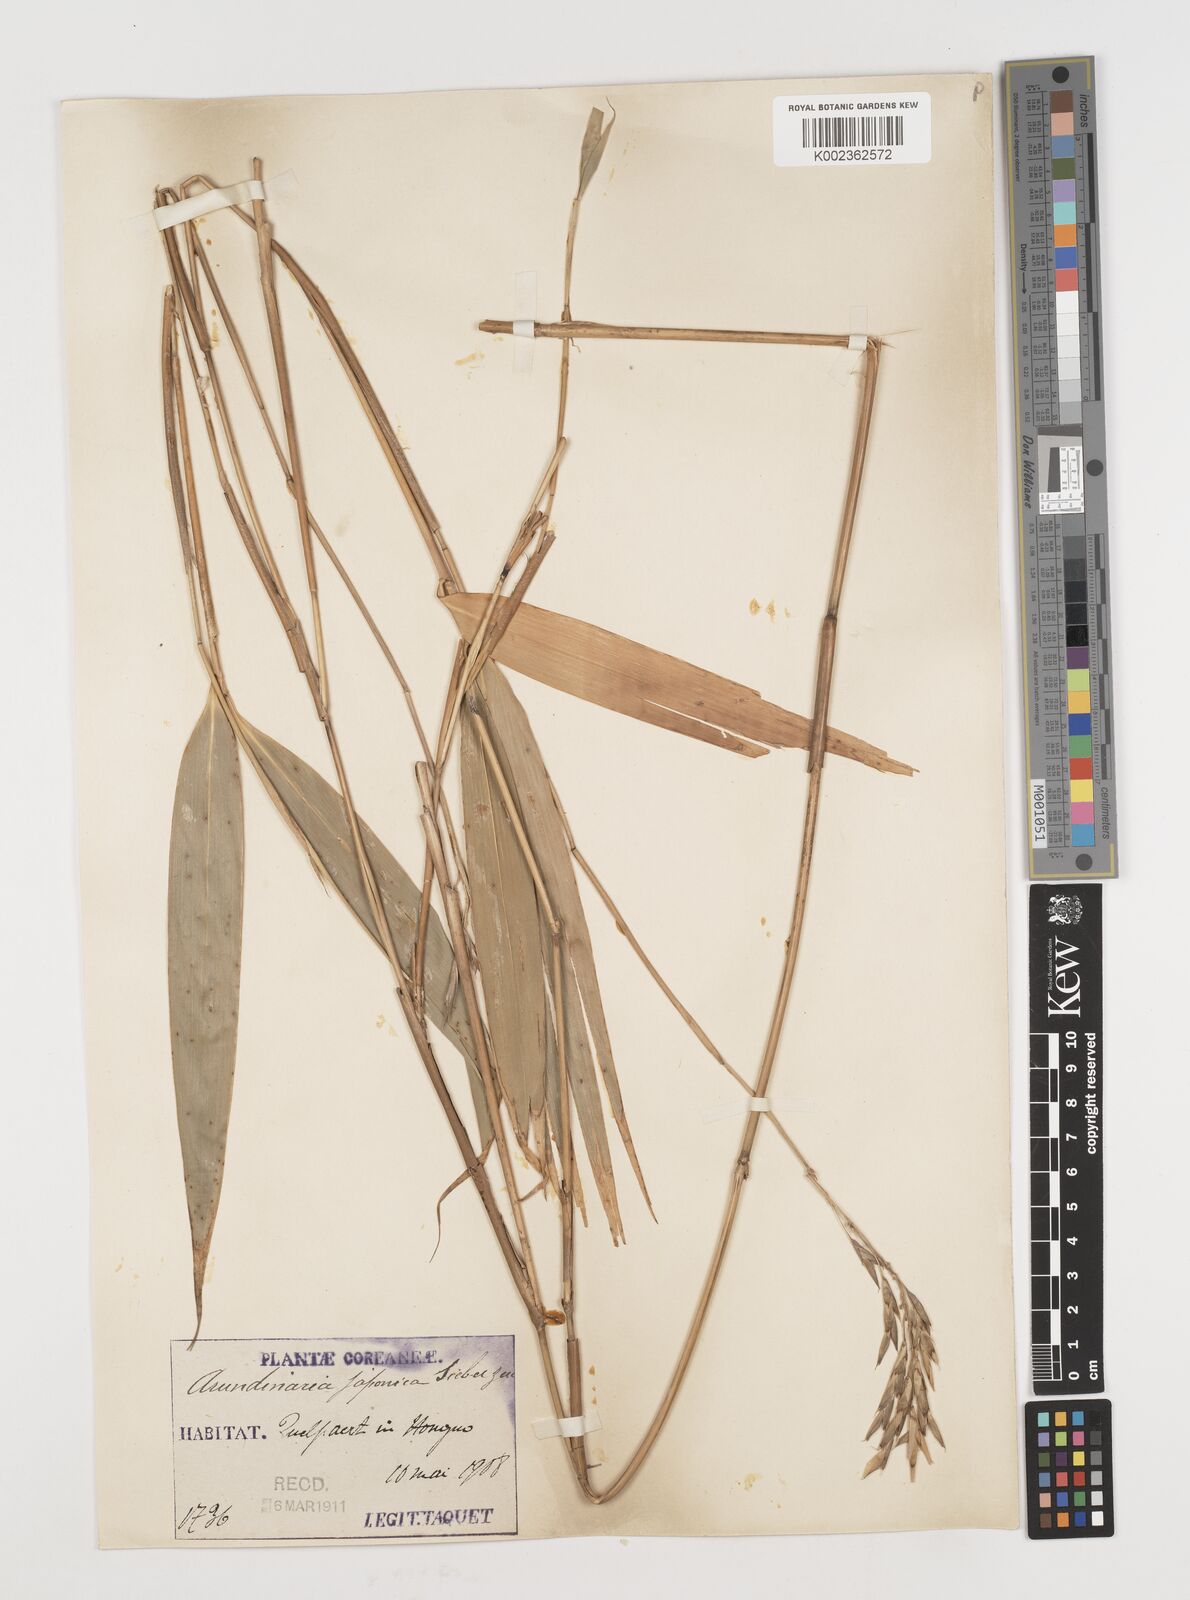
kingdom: Plantae
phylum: Tracheophyta
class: Liliopsida
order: Poales
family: Poaceae
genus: Pseudosasa
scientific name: Pseudosasa japonica
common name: Arrow bamboo
